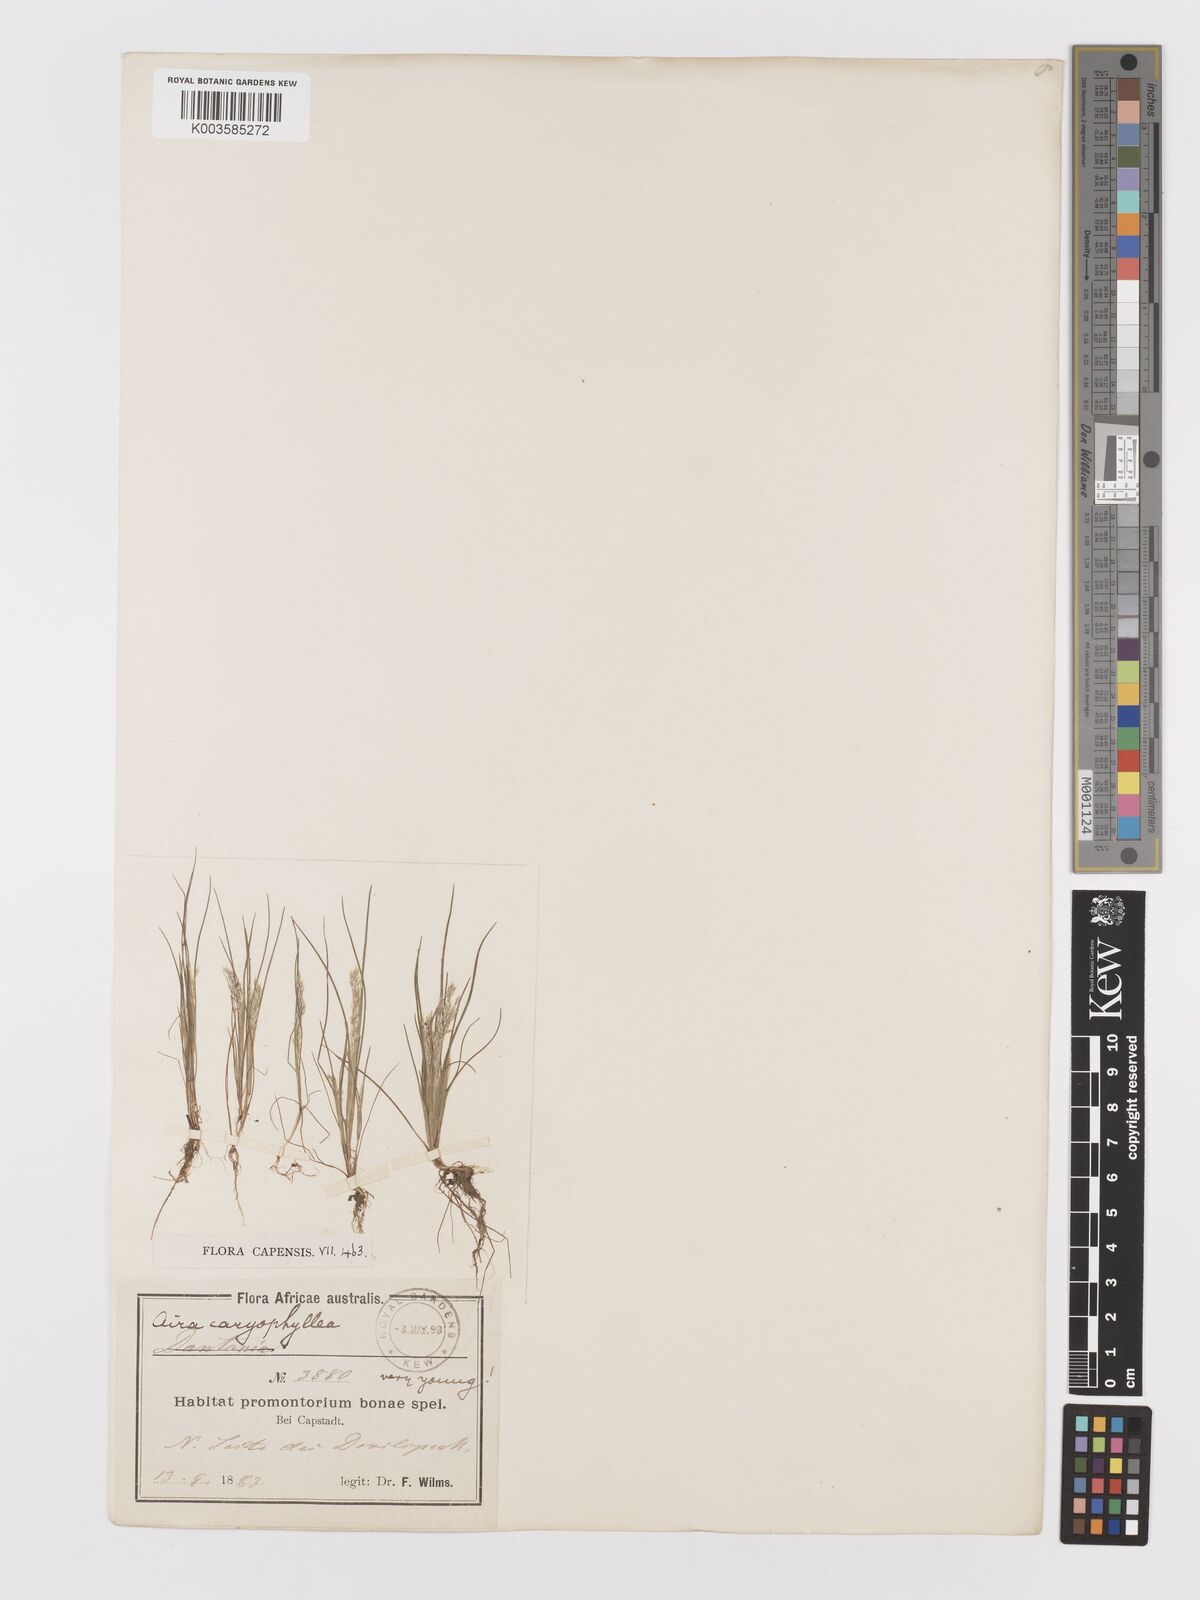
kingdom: Plantae
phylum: Tracheophyta
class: Liliopsida
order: Poales
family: Poaceae
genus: Aira
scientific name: Aira cupaniana
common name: Silver hairgrass
